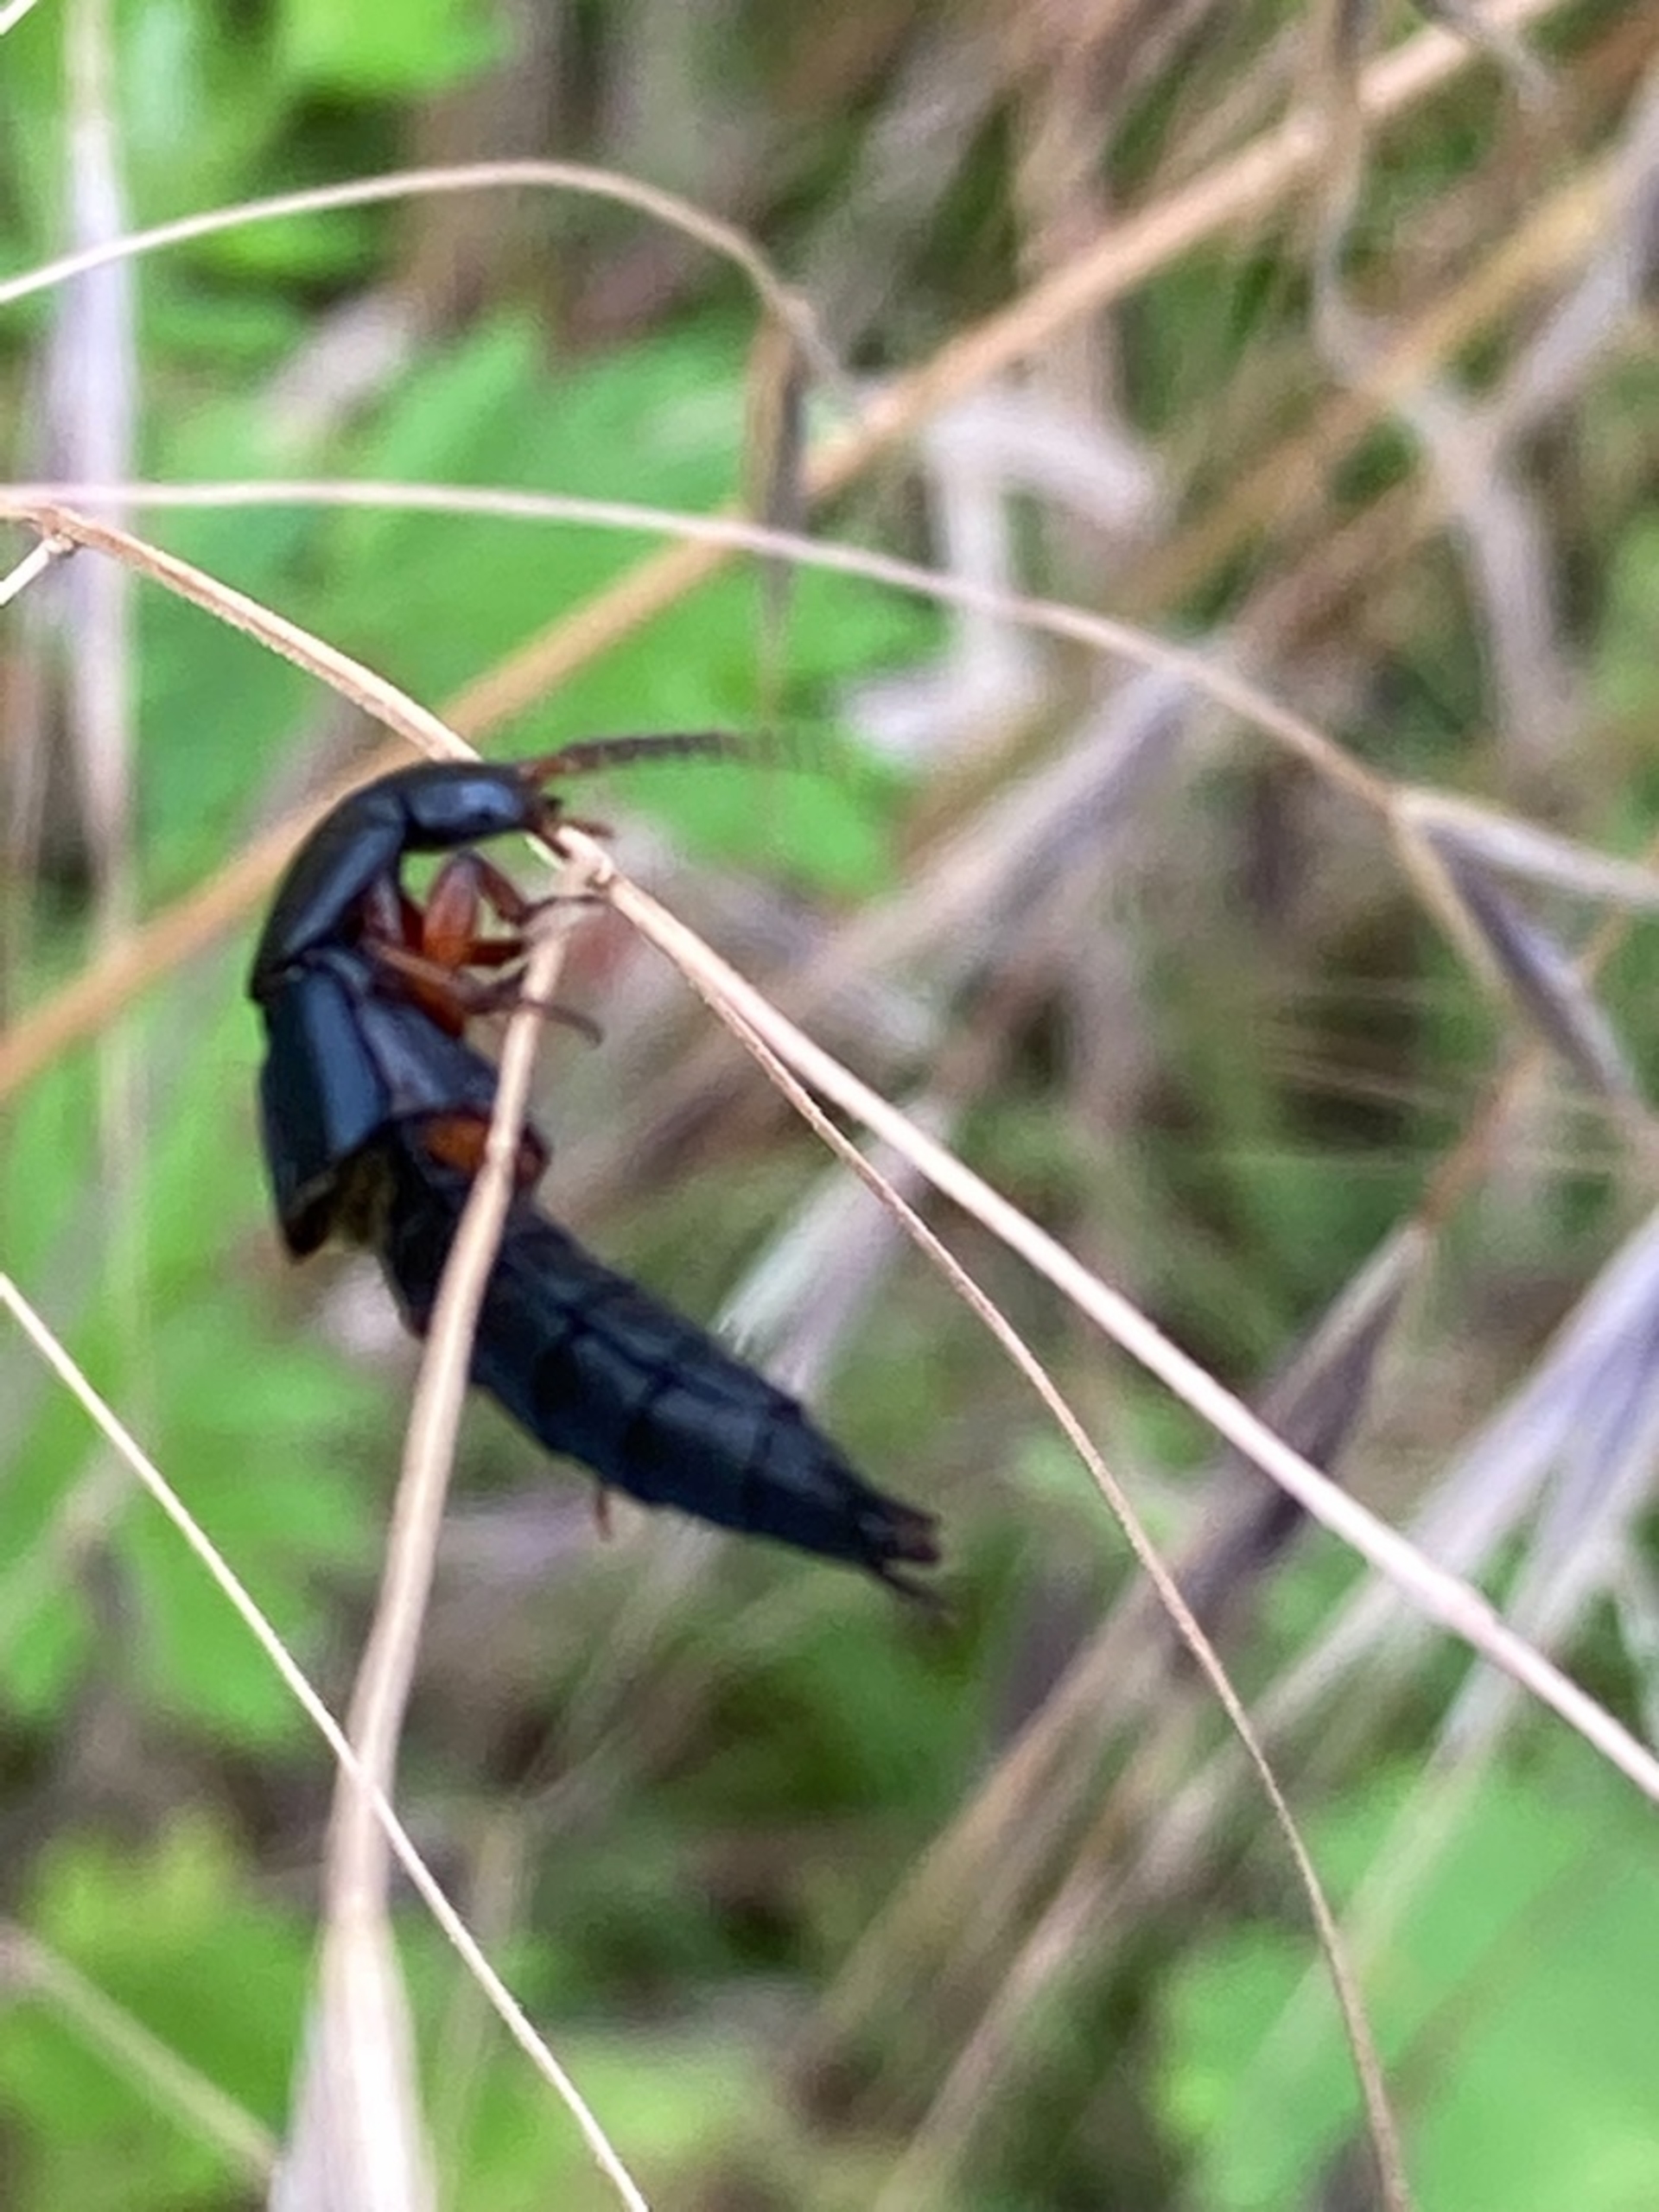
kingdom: Animalia
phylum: Arthropoda
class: Insecta
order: Coleoptera
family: Staphylinidae
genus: Tasgius
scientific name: Tasgius
